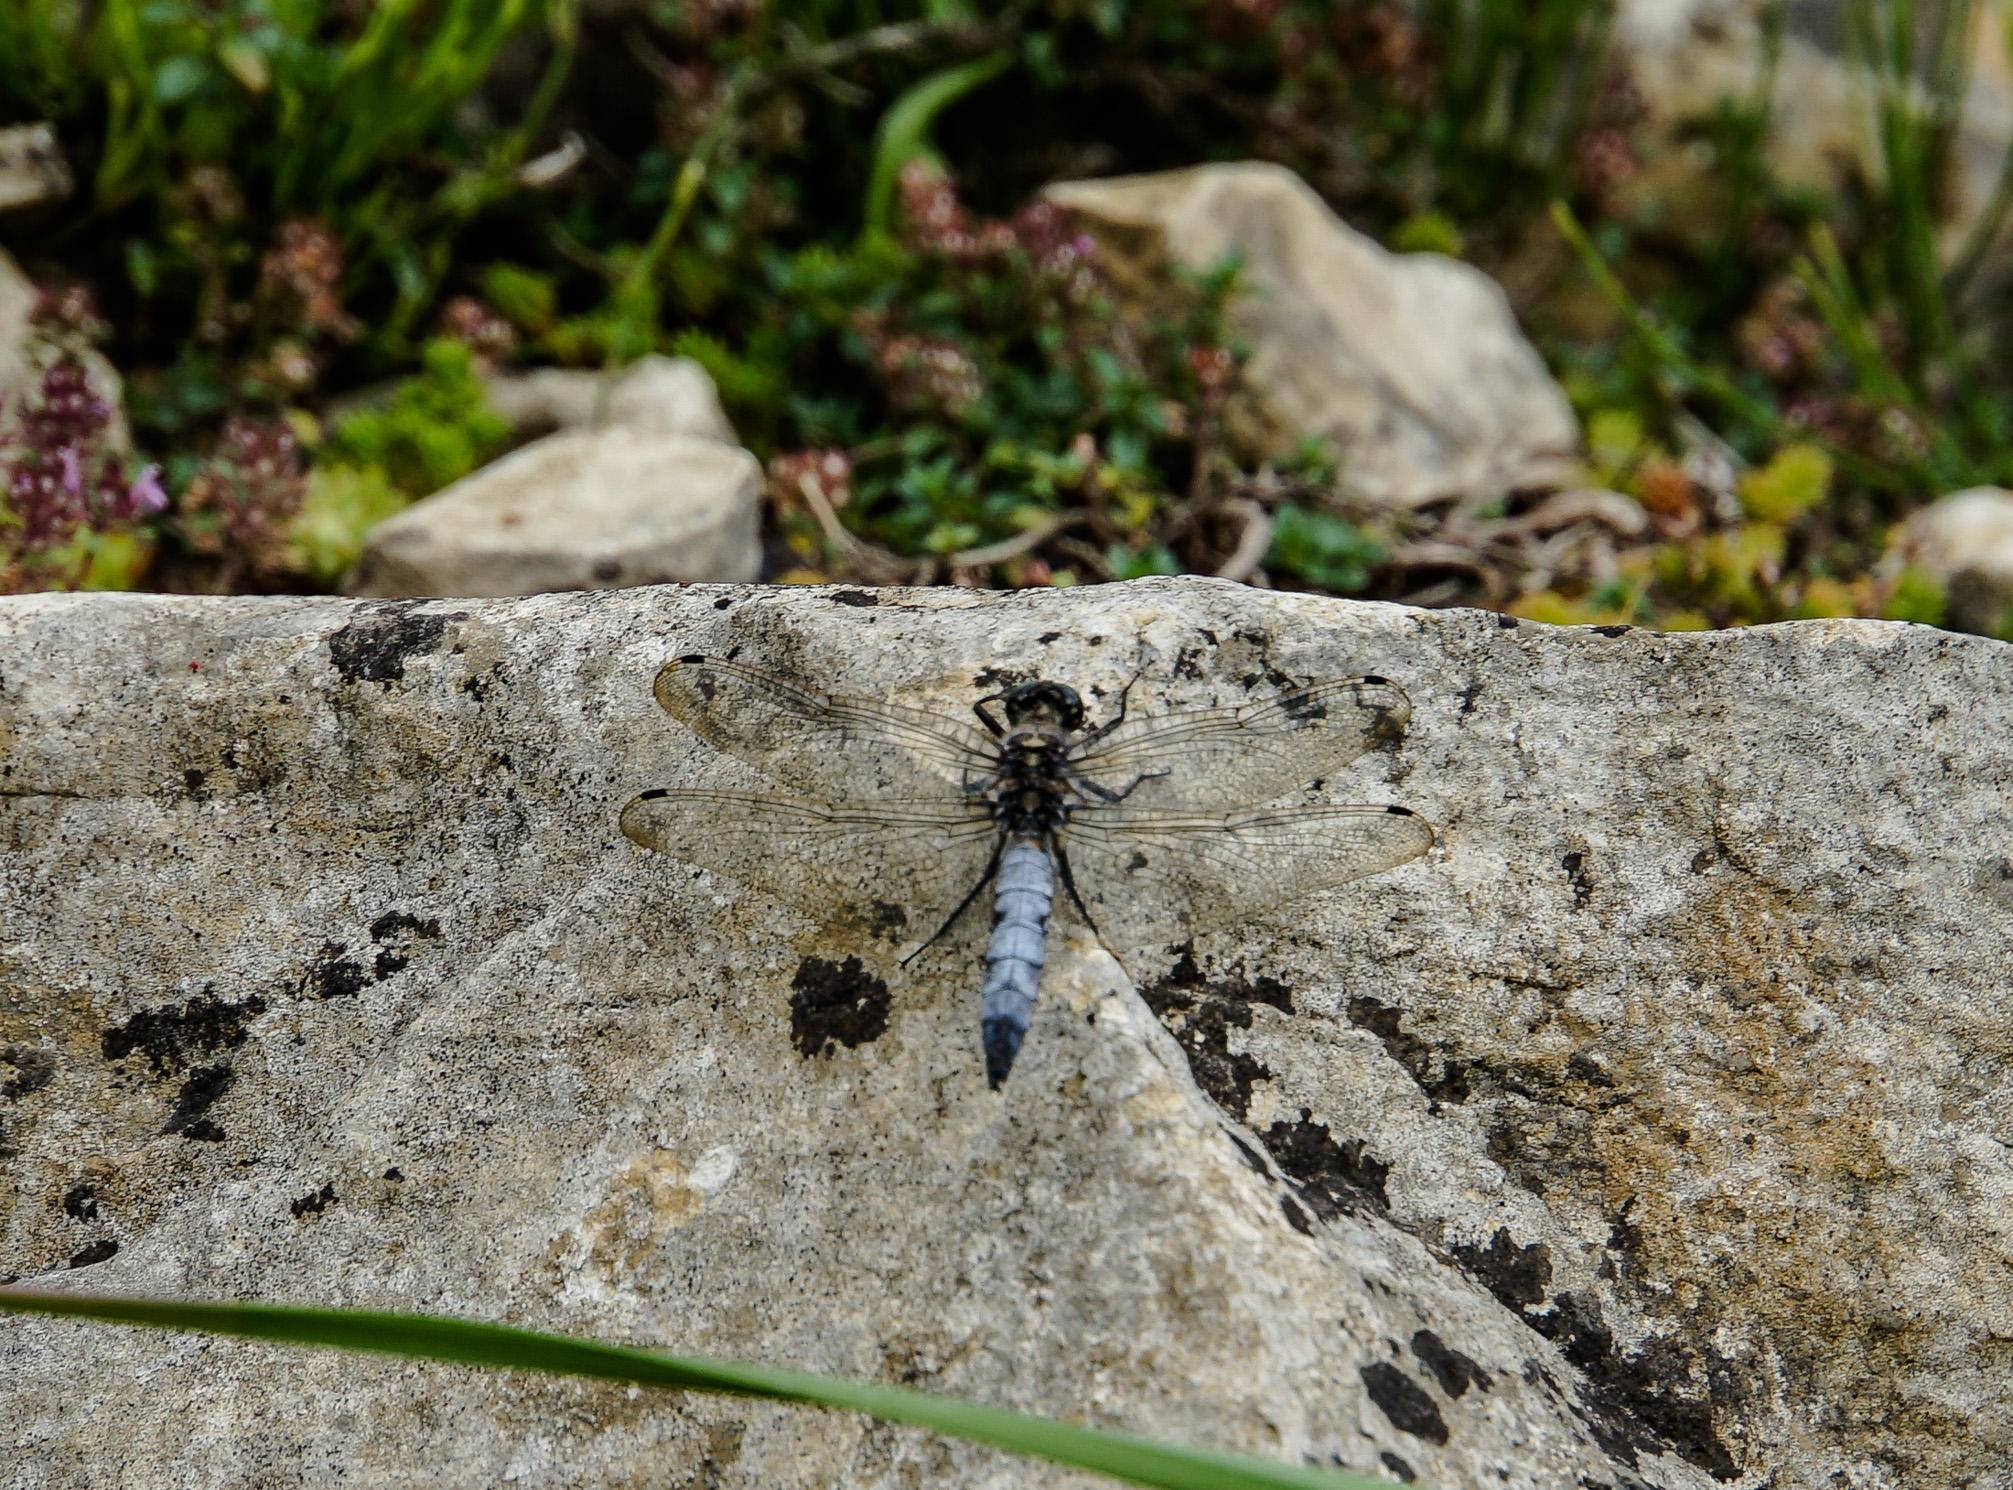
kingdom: Animalia
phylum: Arthropoda
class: Insecta
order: Odonata
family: Libellulidae
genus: Orthetrum
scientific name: Orthetrum cancellatum
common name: Black-tailed skimmer
